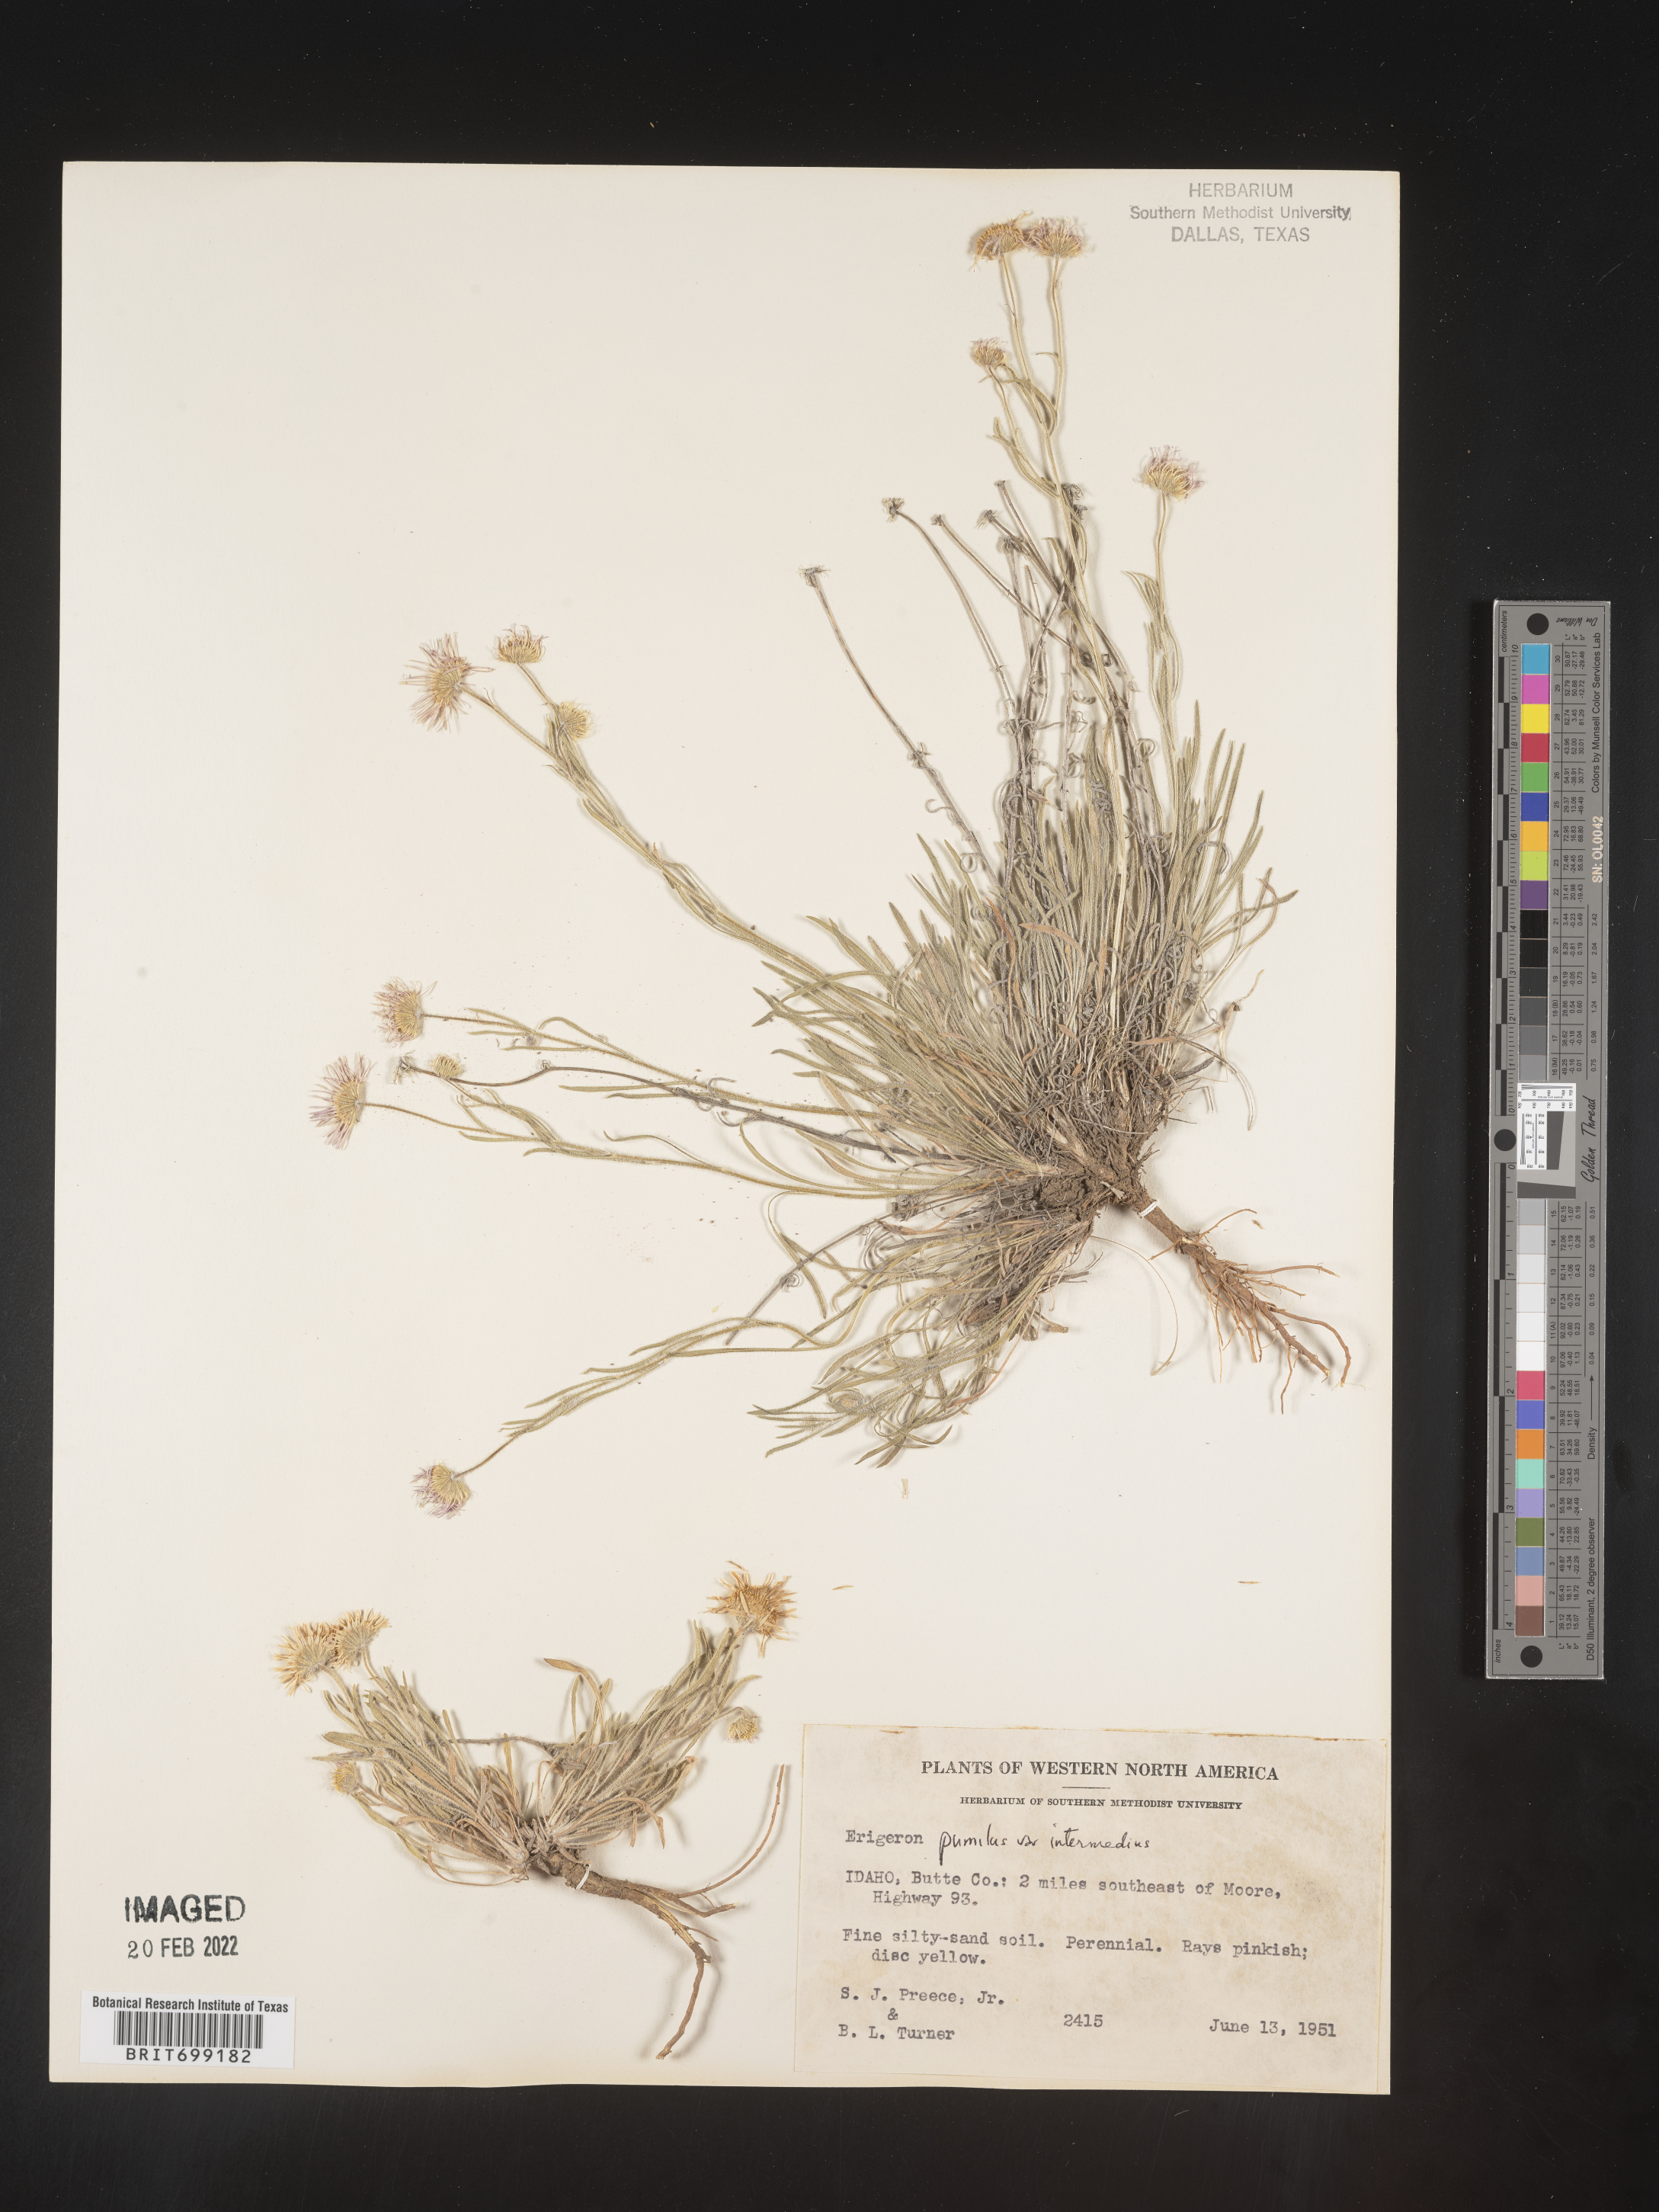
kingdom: Plantae
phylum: Tracheophyta
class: Magnoliopsida
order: Asterales
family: Asteraceae
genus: Erigeron
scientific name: Erigeron pumilus
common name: Shaggy fleabane
